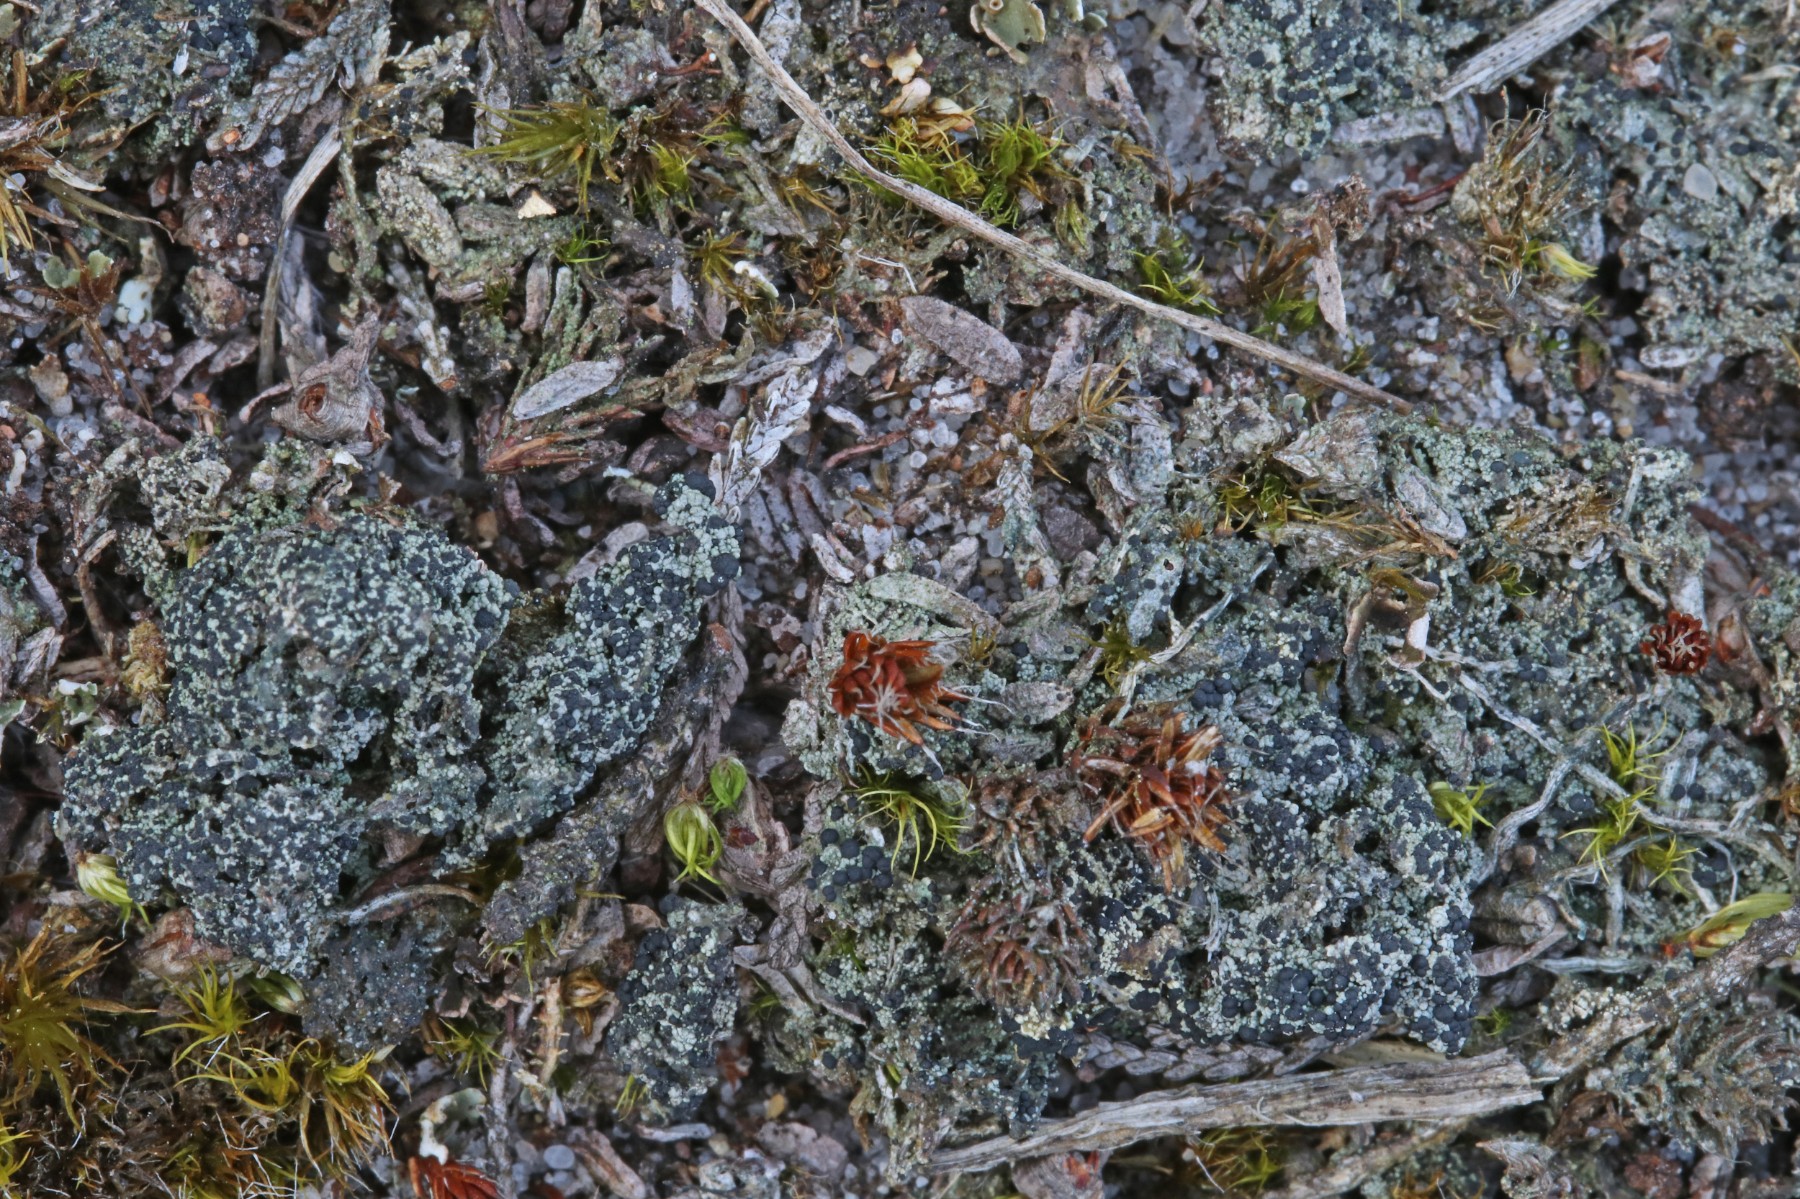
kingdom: Fungi
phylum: Ascomycota
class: Lecanoromycetes
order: Lecanorales
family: Byssolomataceae
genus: Micarea
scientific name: Micarea lignaria
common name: tørve-knaplav
